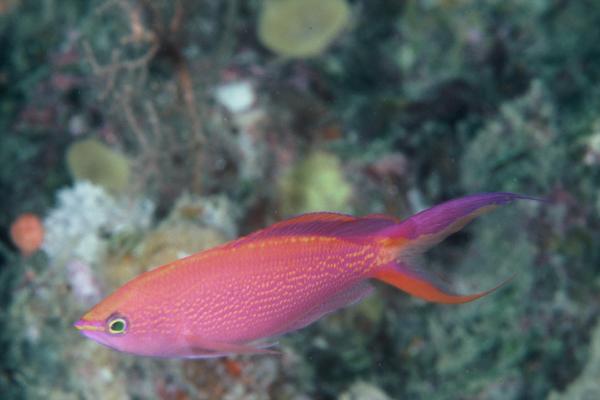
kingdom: Animalia
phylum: Chordata
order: Perciformes
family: Serranidae
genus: Pseudanthias
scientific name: Pseudanthias smithvanizi
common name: Princess anthias
